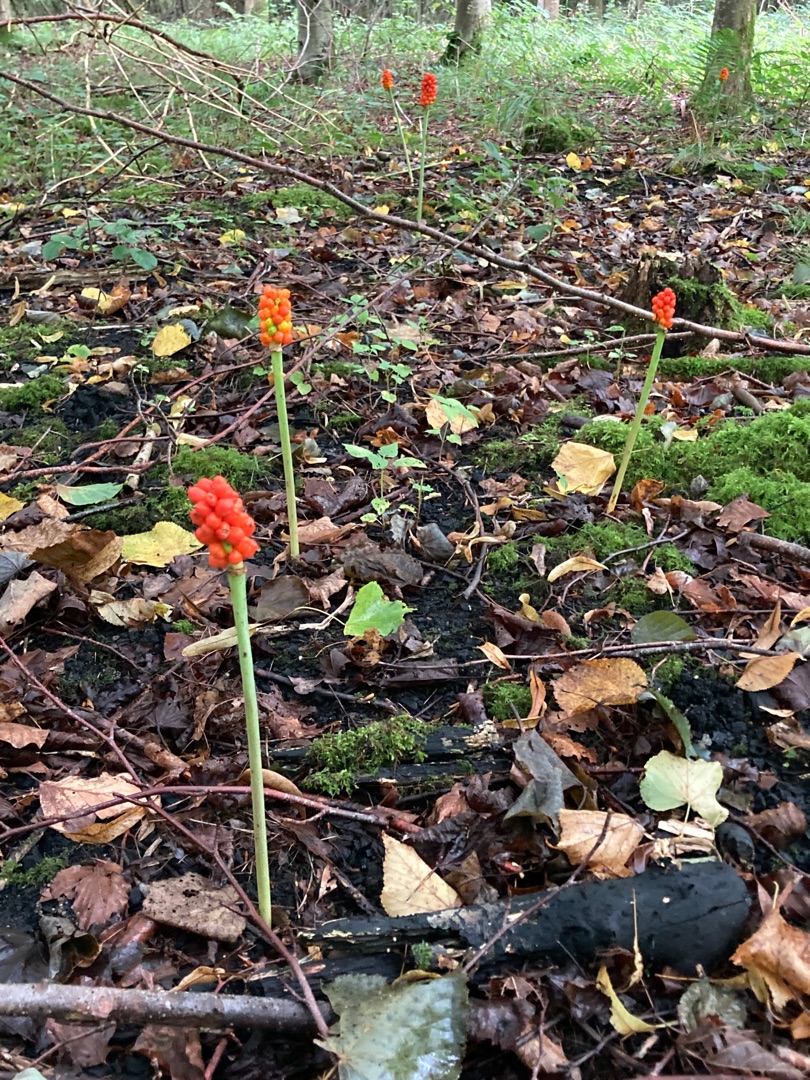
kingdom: Plantae
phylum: Tracheophyta
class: Liliopsida
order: Alismatales
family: Araceae
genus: Arum
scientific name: Arum
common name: Arumslægten
